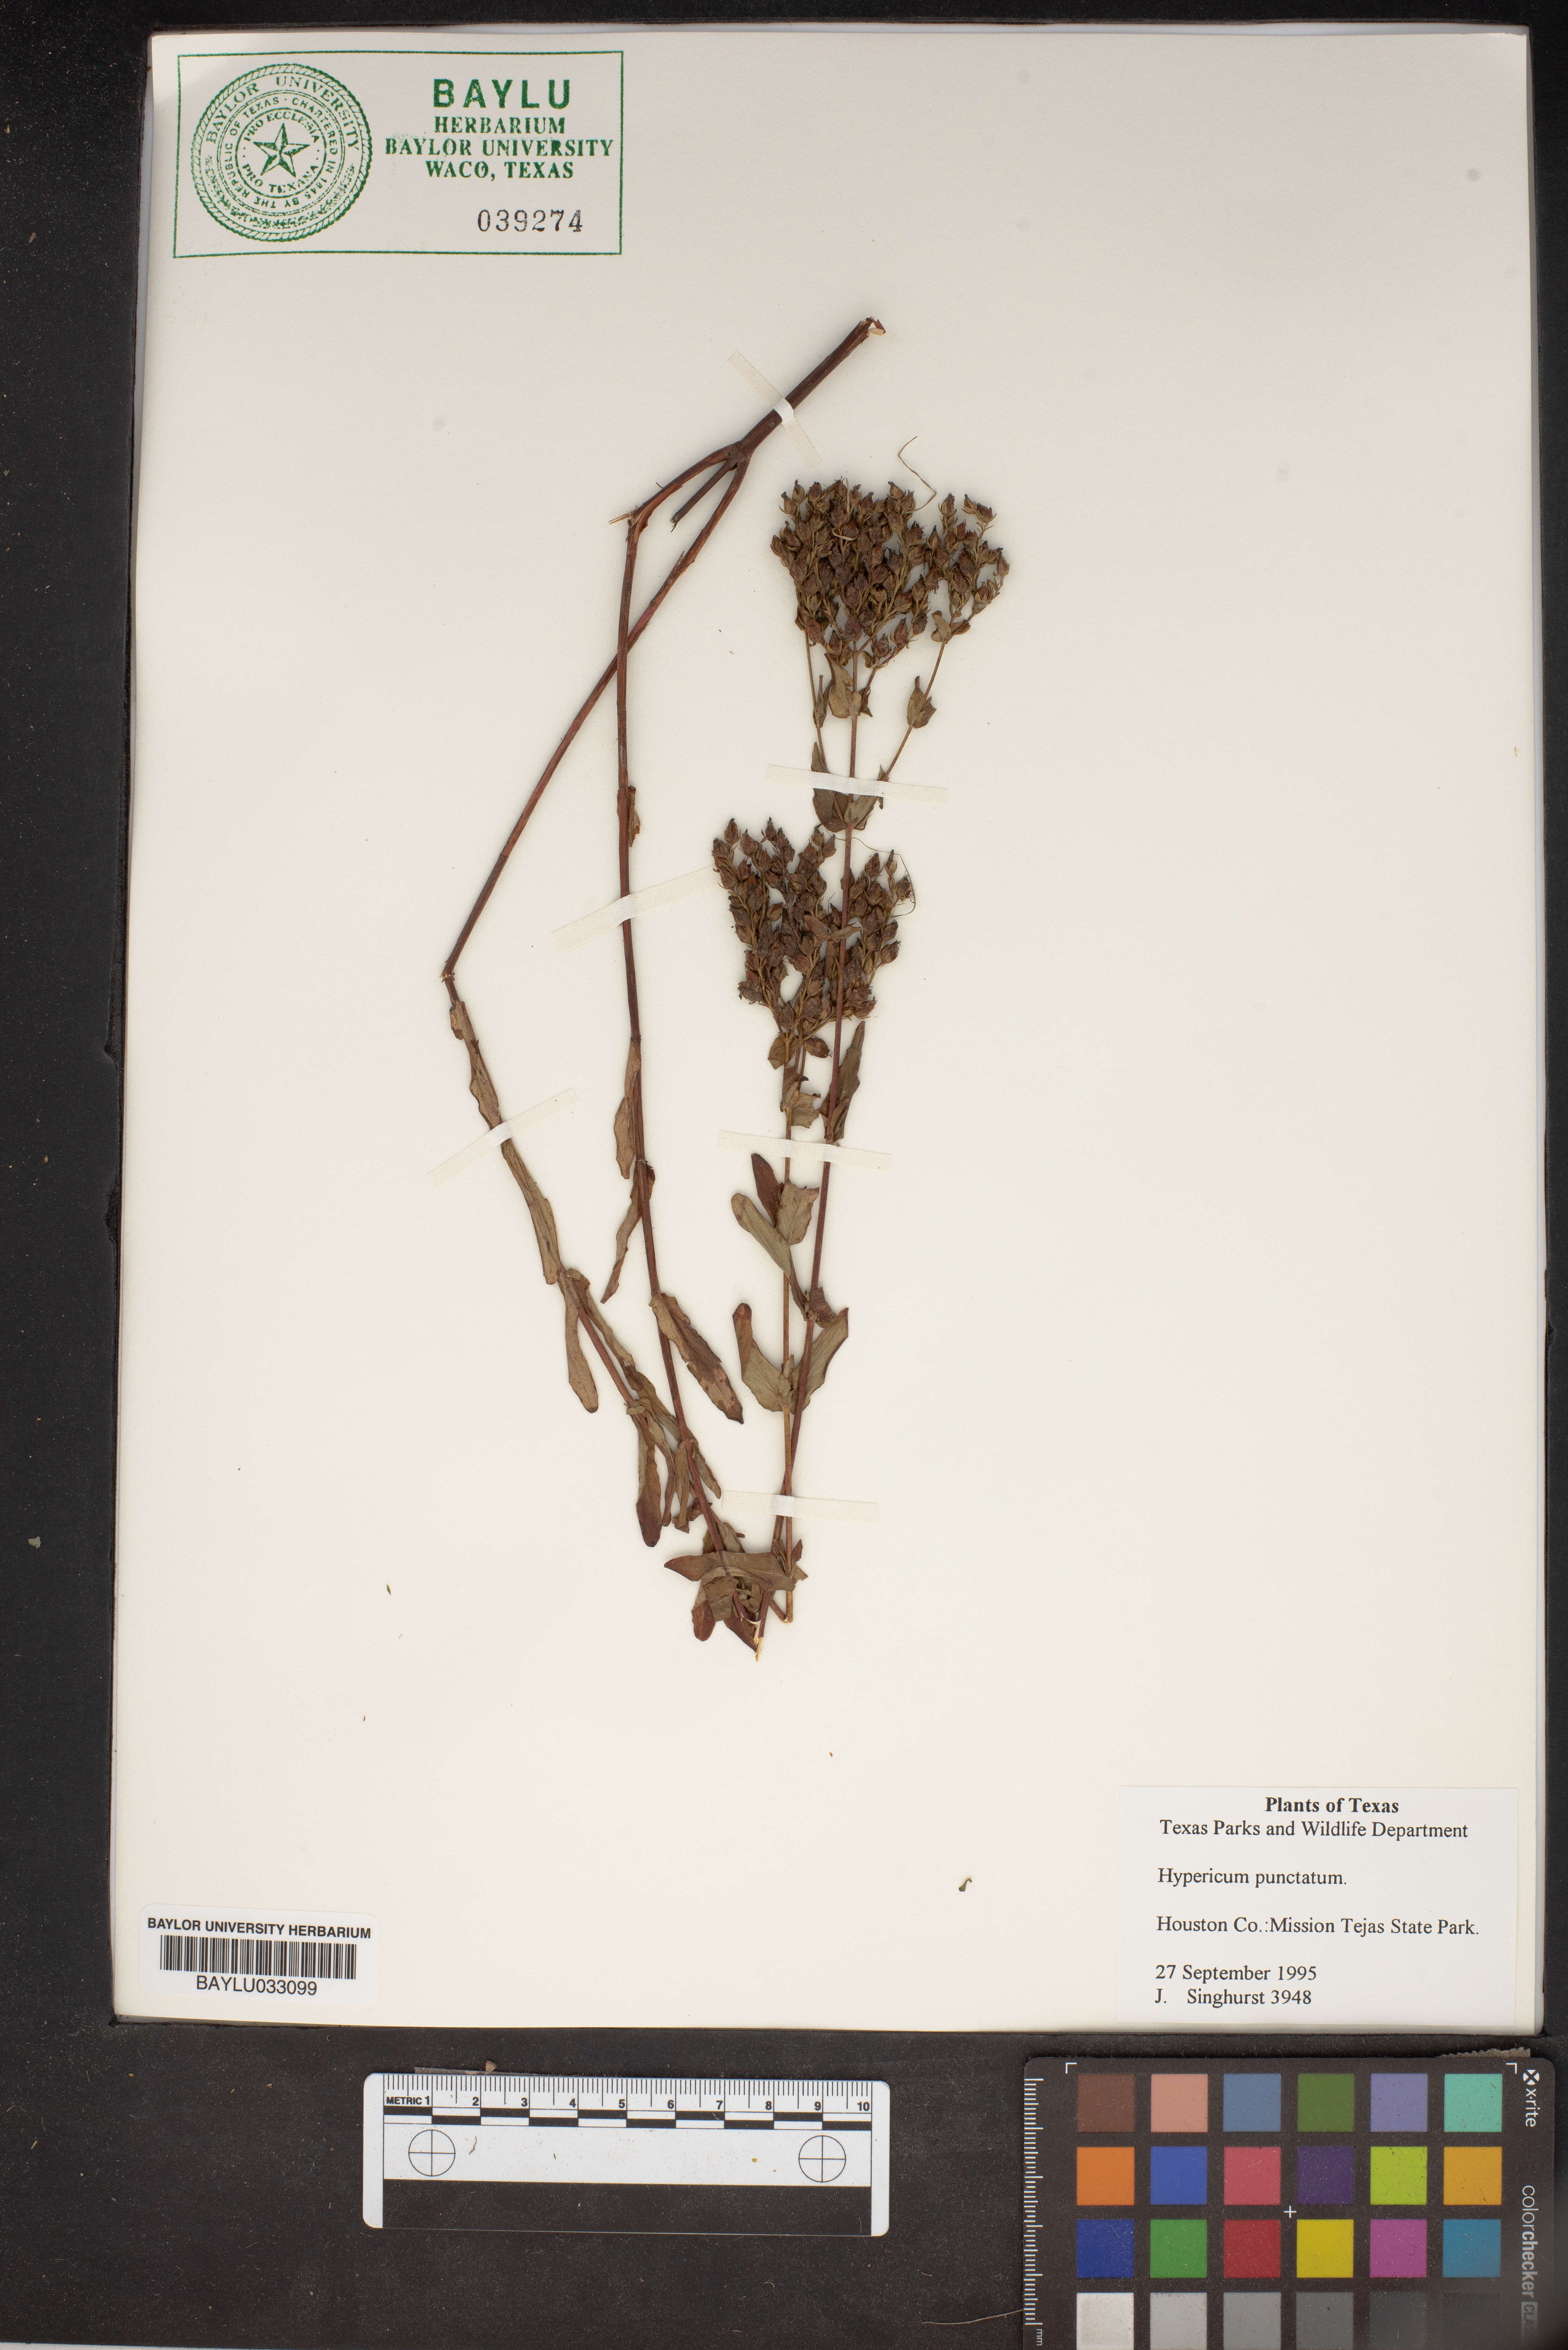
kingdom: Plantae
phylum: Tracheophyta
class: Magnoliopsida
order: Malpighiales
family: Hypericaceae
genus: Hypericum
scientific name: Hypericum punctatum
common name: Spotted st. john's-wort
